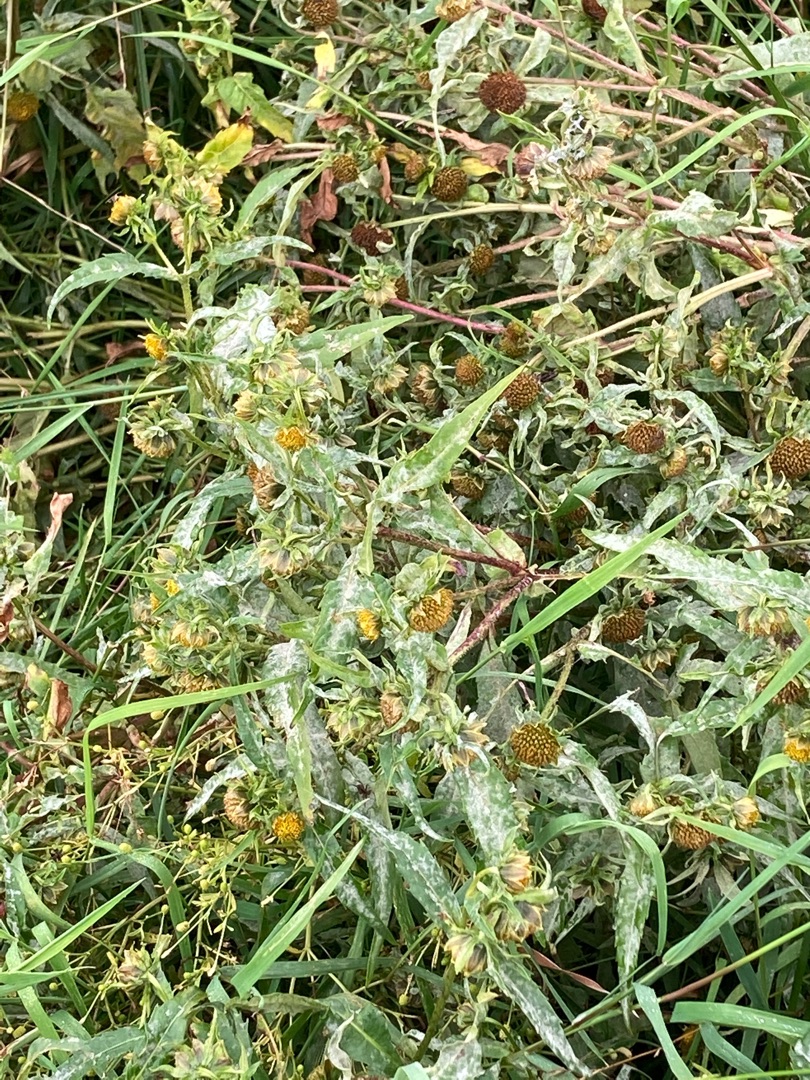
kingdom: Plantae
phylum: Tracheophyta
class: Magnoliopsida
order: Asterales
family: Asteraceae
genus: Bidens
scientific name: Bidens cernua
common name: Nikkende brøndsel
